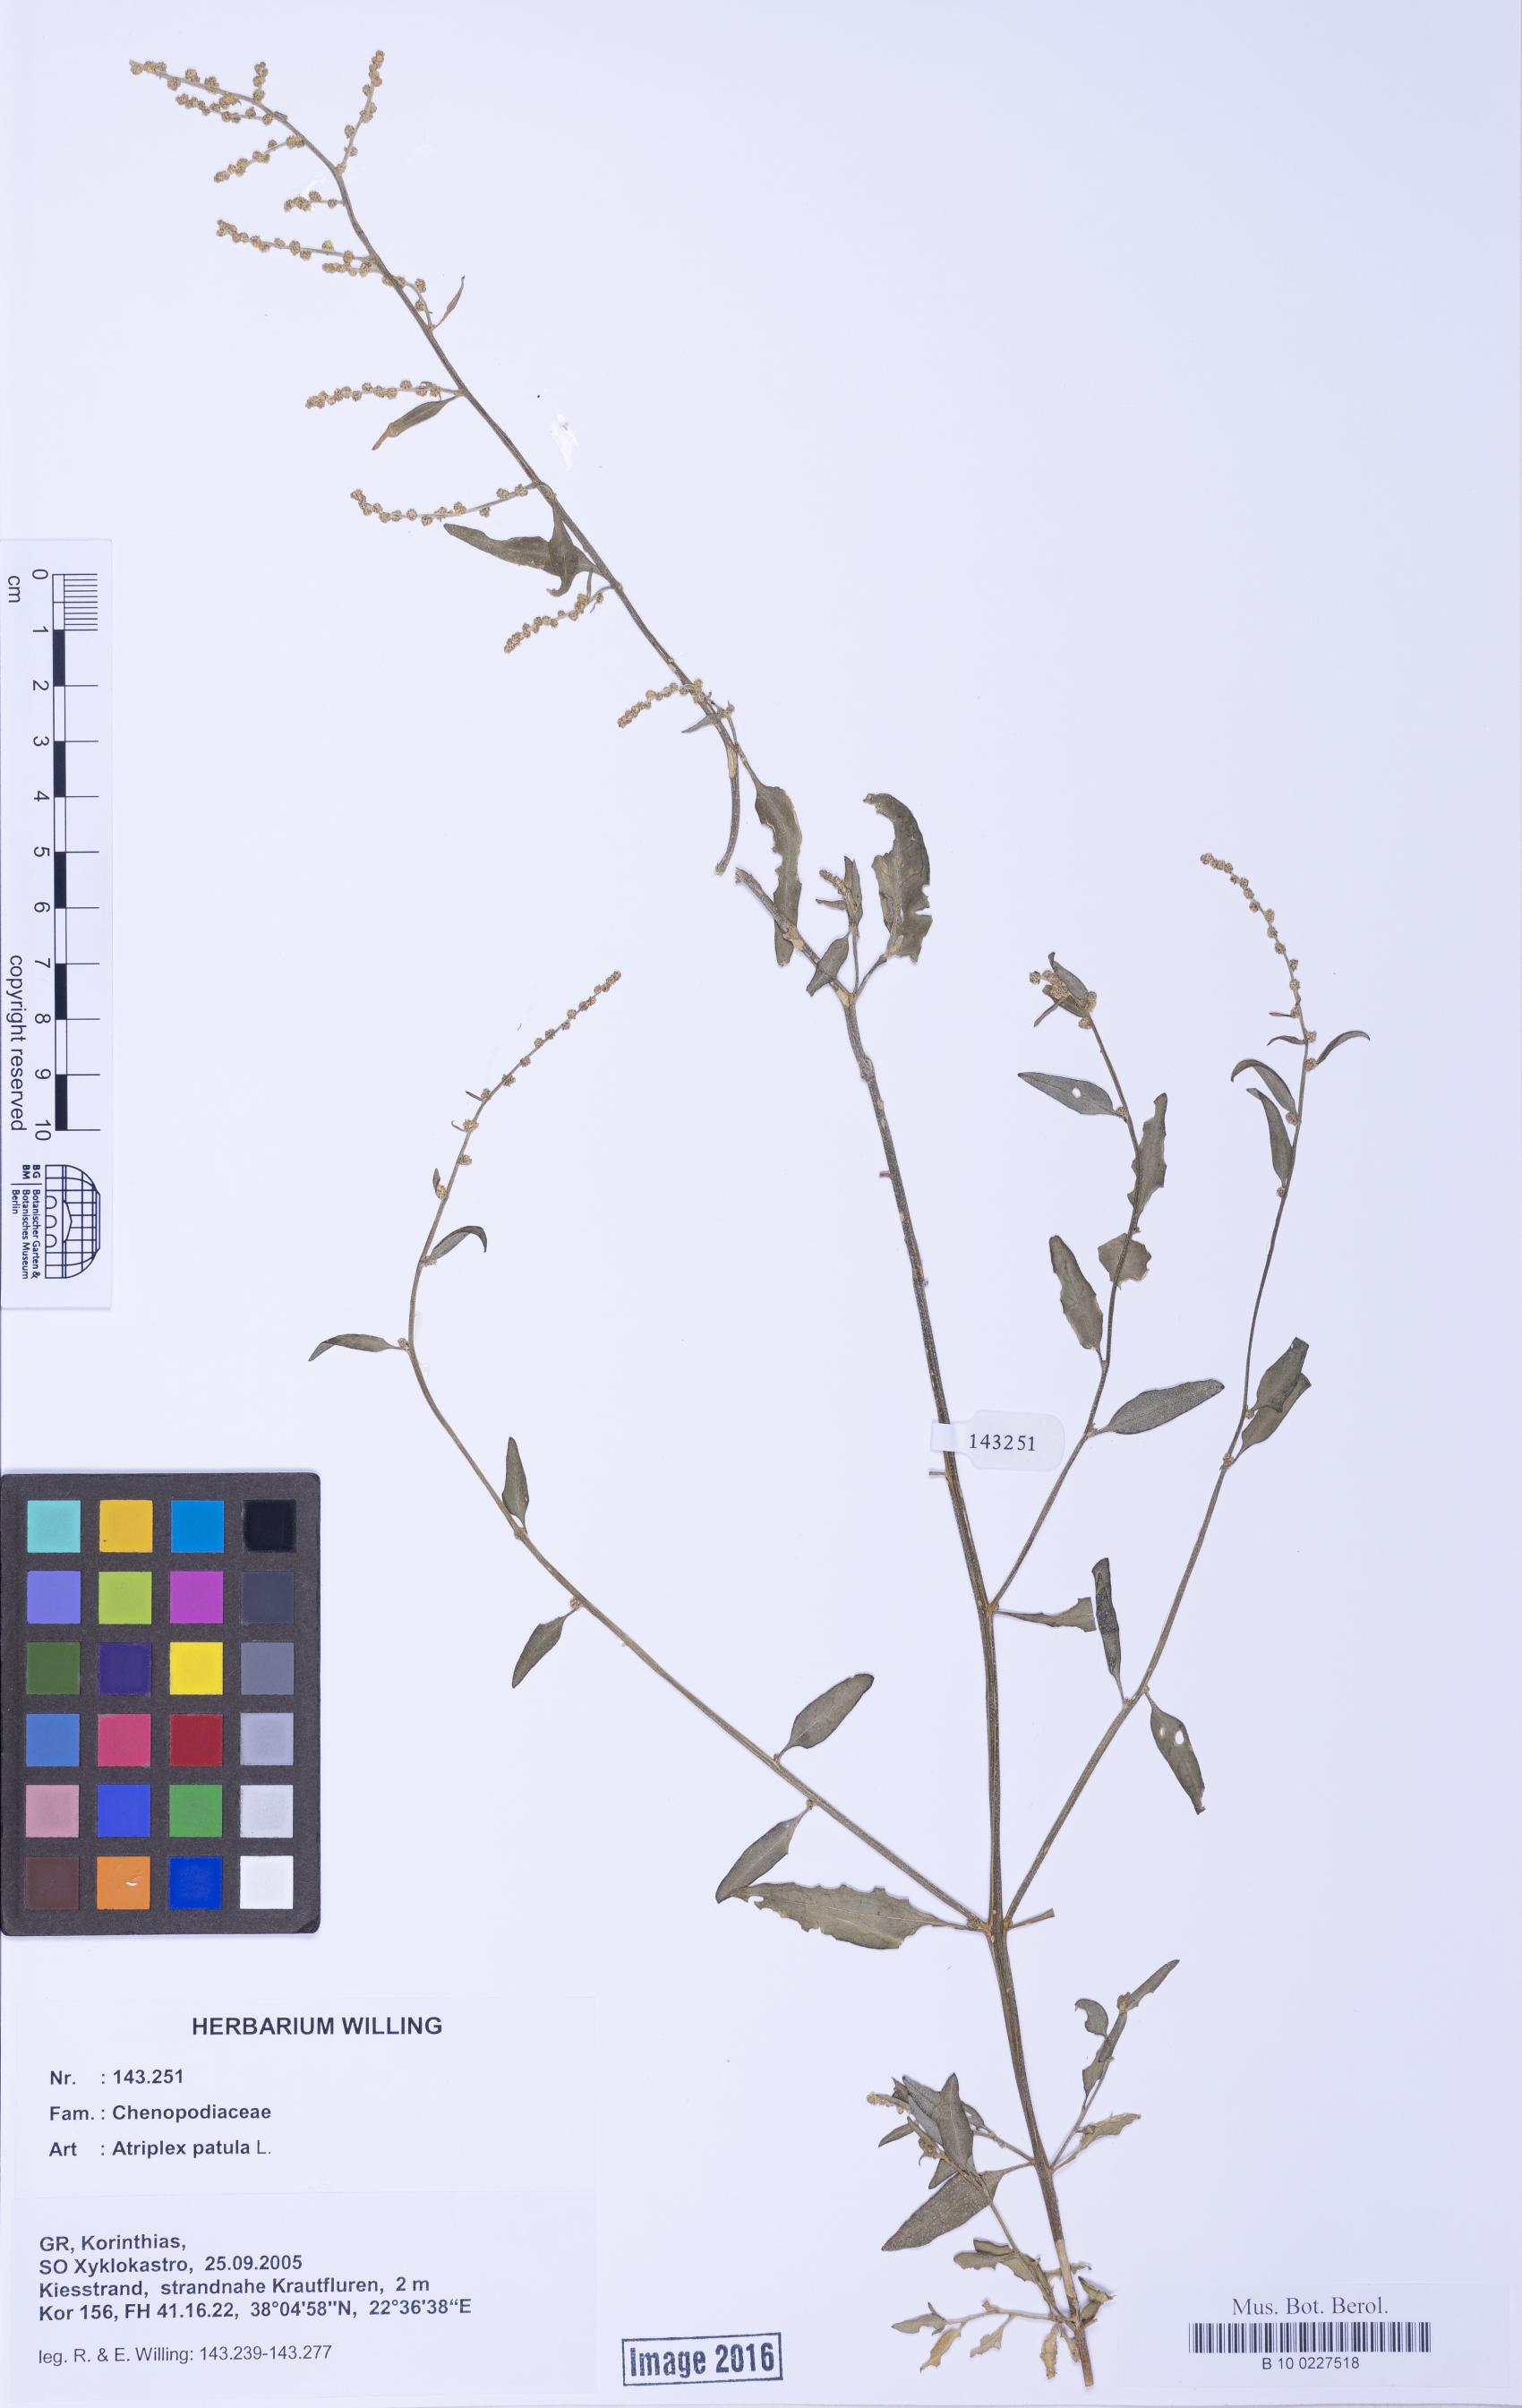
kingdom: Plantae
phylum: Tracheophyta
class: Magnoliopsida
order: Caryophyllales
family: Amaranthaceae
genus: Atriplex
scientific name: Atriplex patula
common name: Common orache
